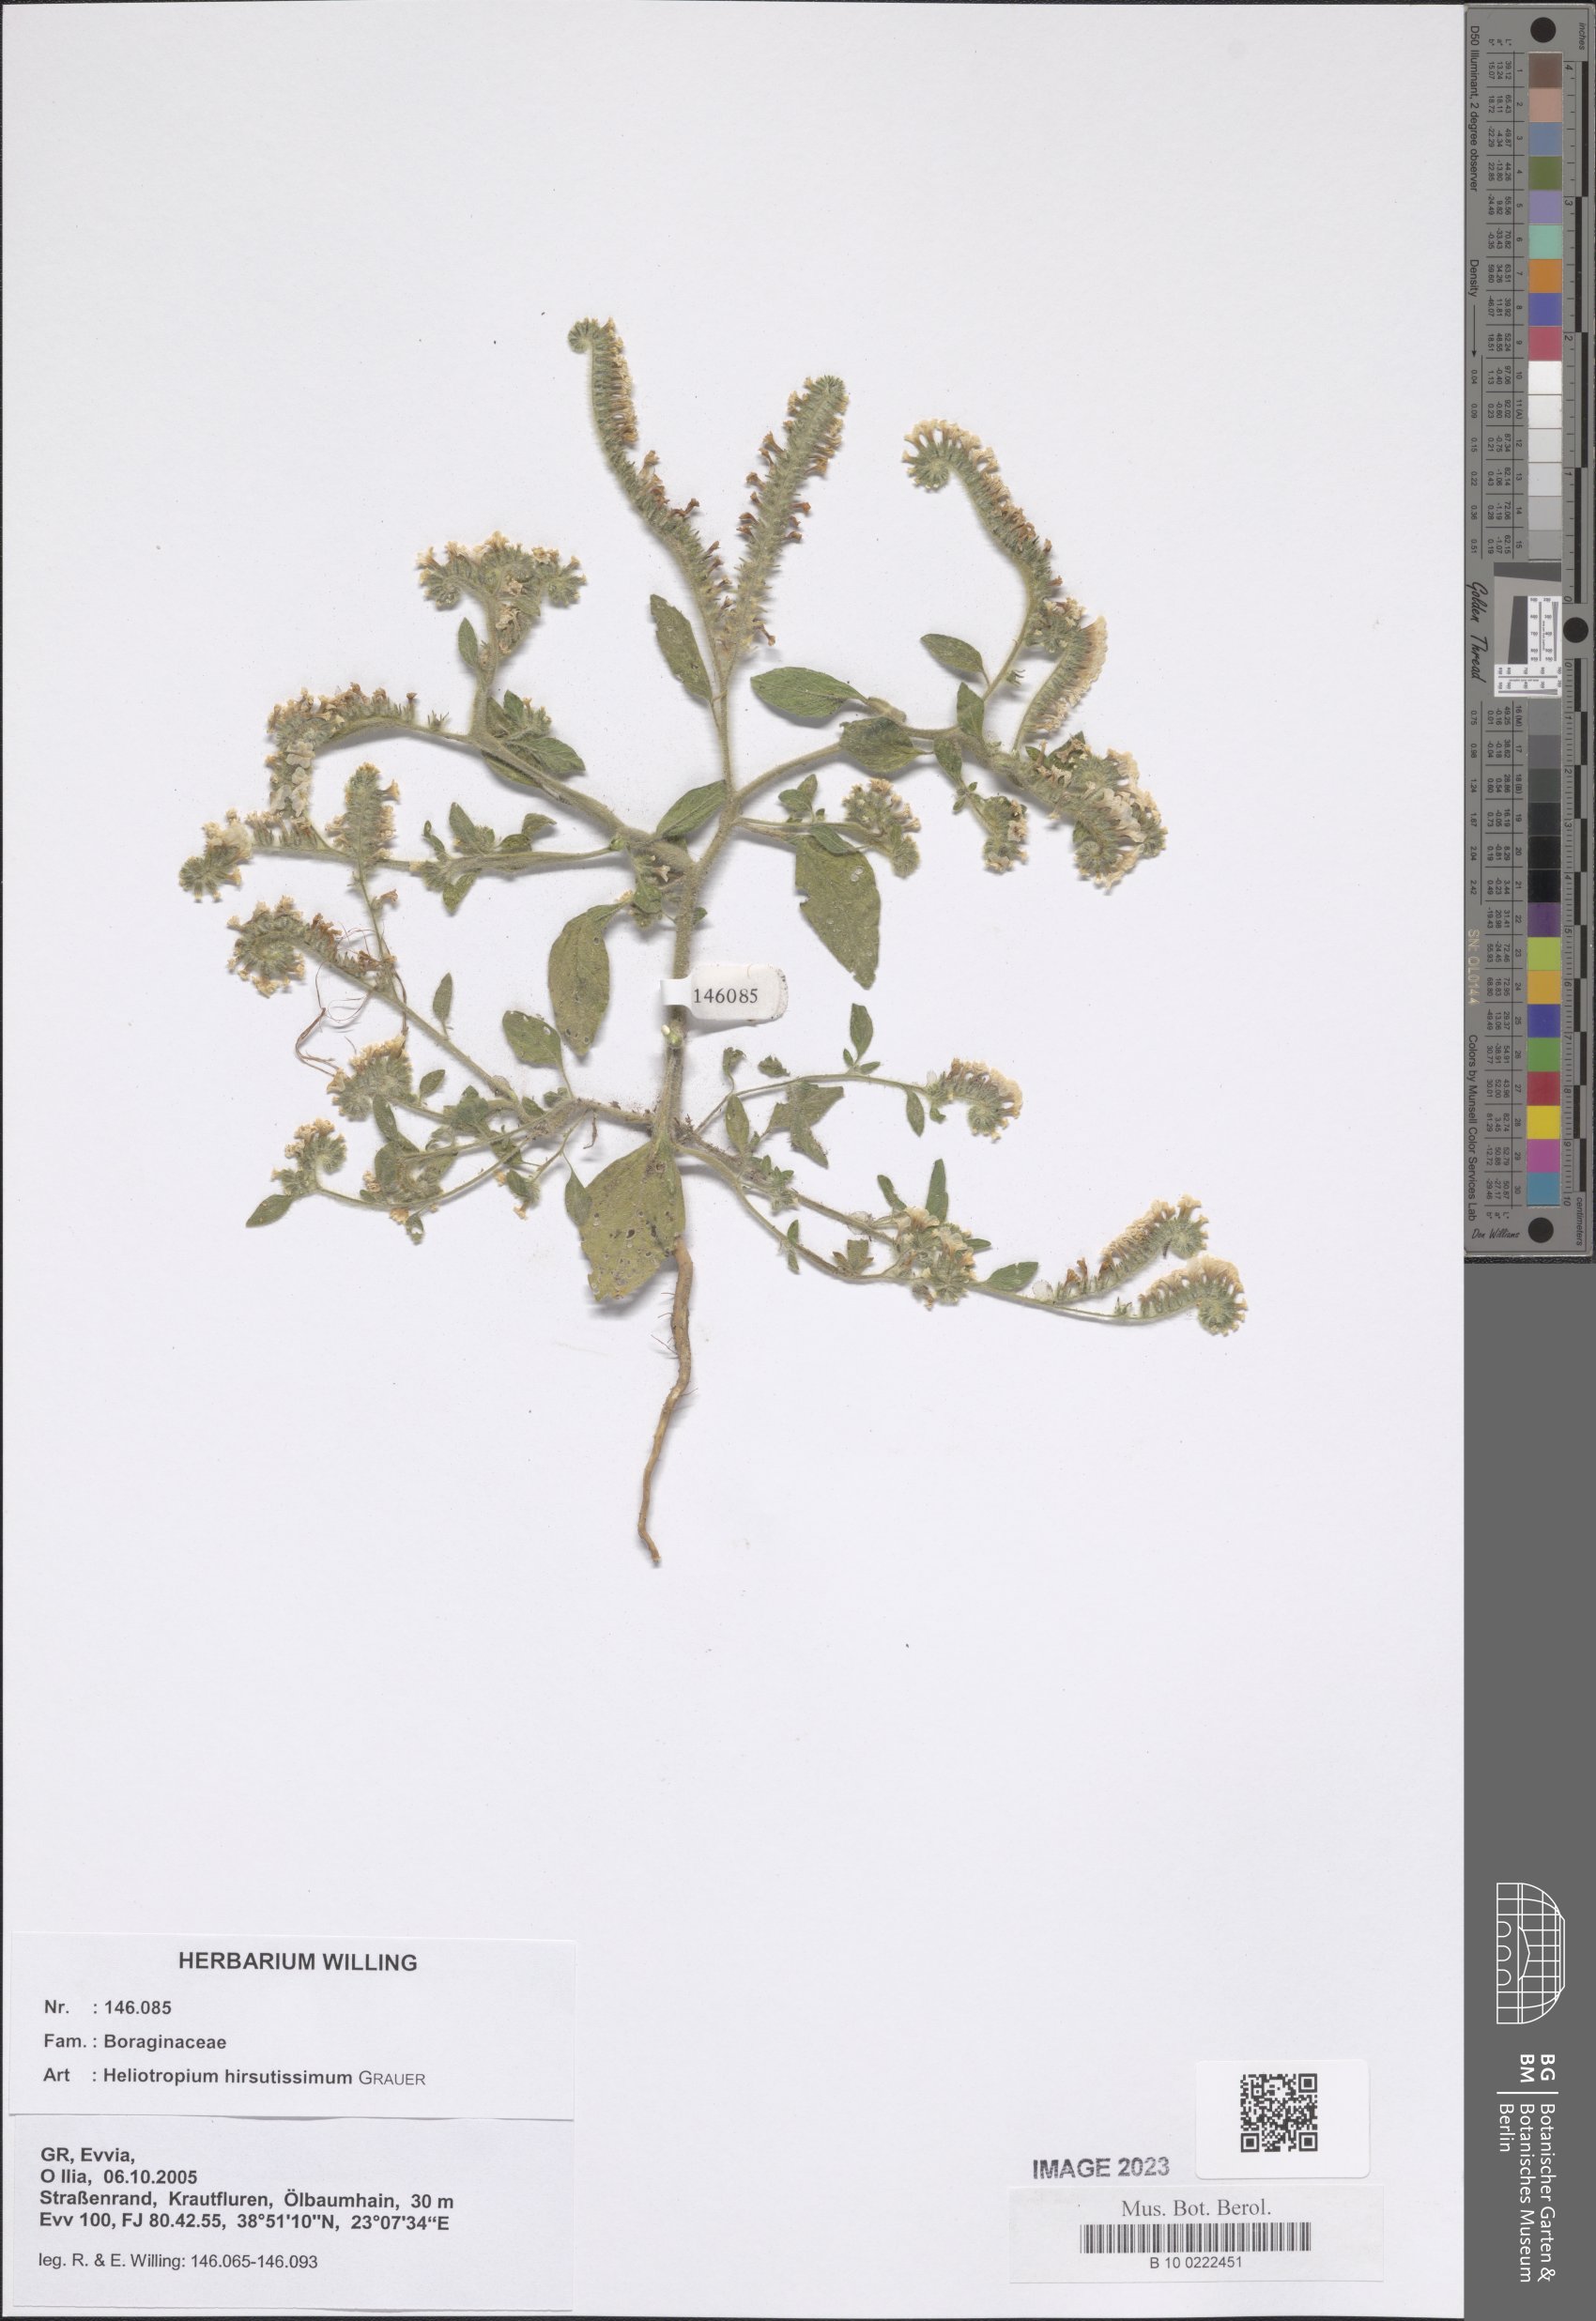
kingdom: Plantae
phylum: Tracheophyta
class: Magnoliopsida
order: Boraginales
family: Heliotropiaceae
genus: Heliotropium
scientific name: Heliotropium hirsutissimum
